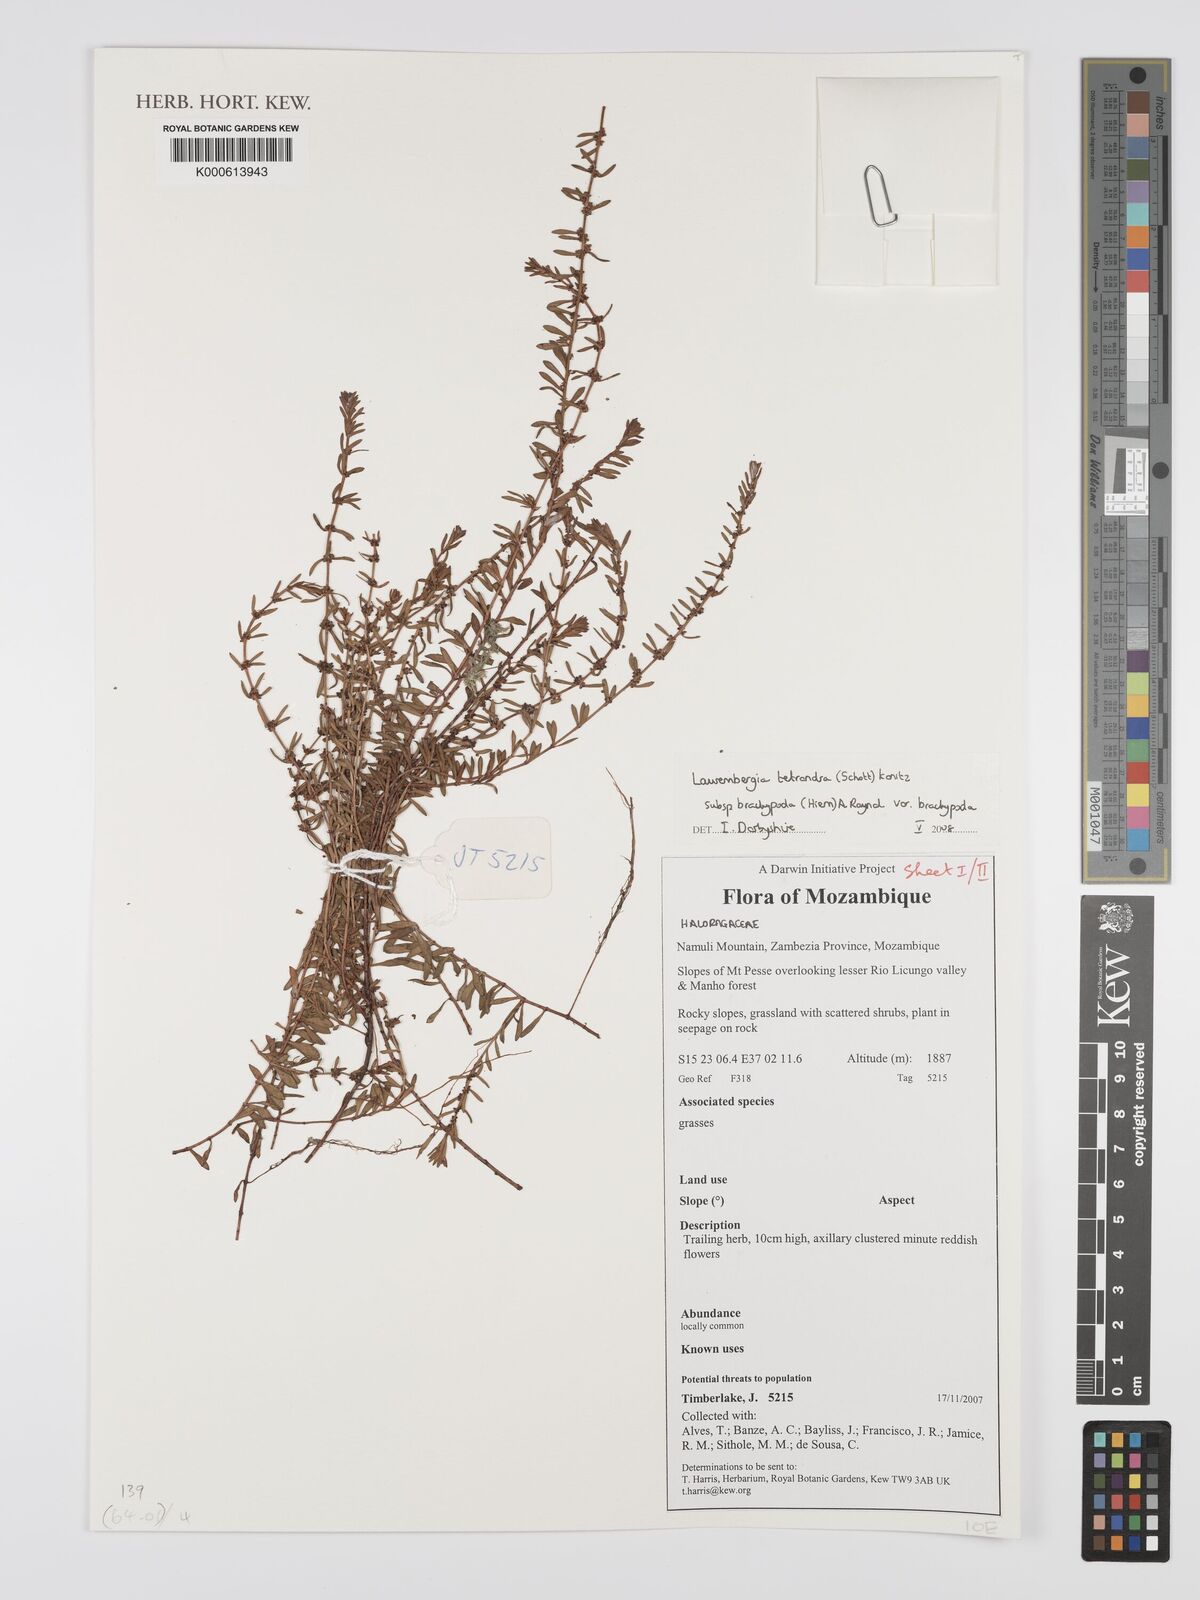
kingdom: Plantae
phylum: Tracheophyta
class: Magnoliopsida
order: Saxifragales
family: Haloragaceae
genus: Laurembergia
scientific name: Laurembergia tetrandra
